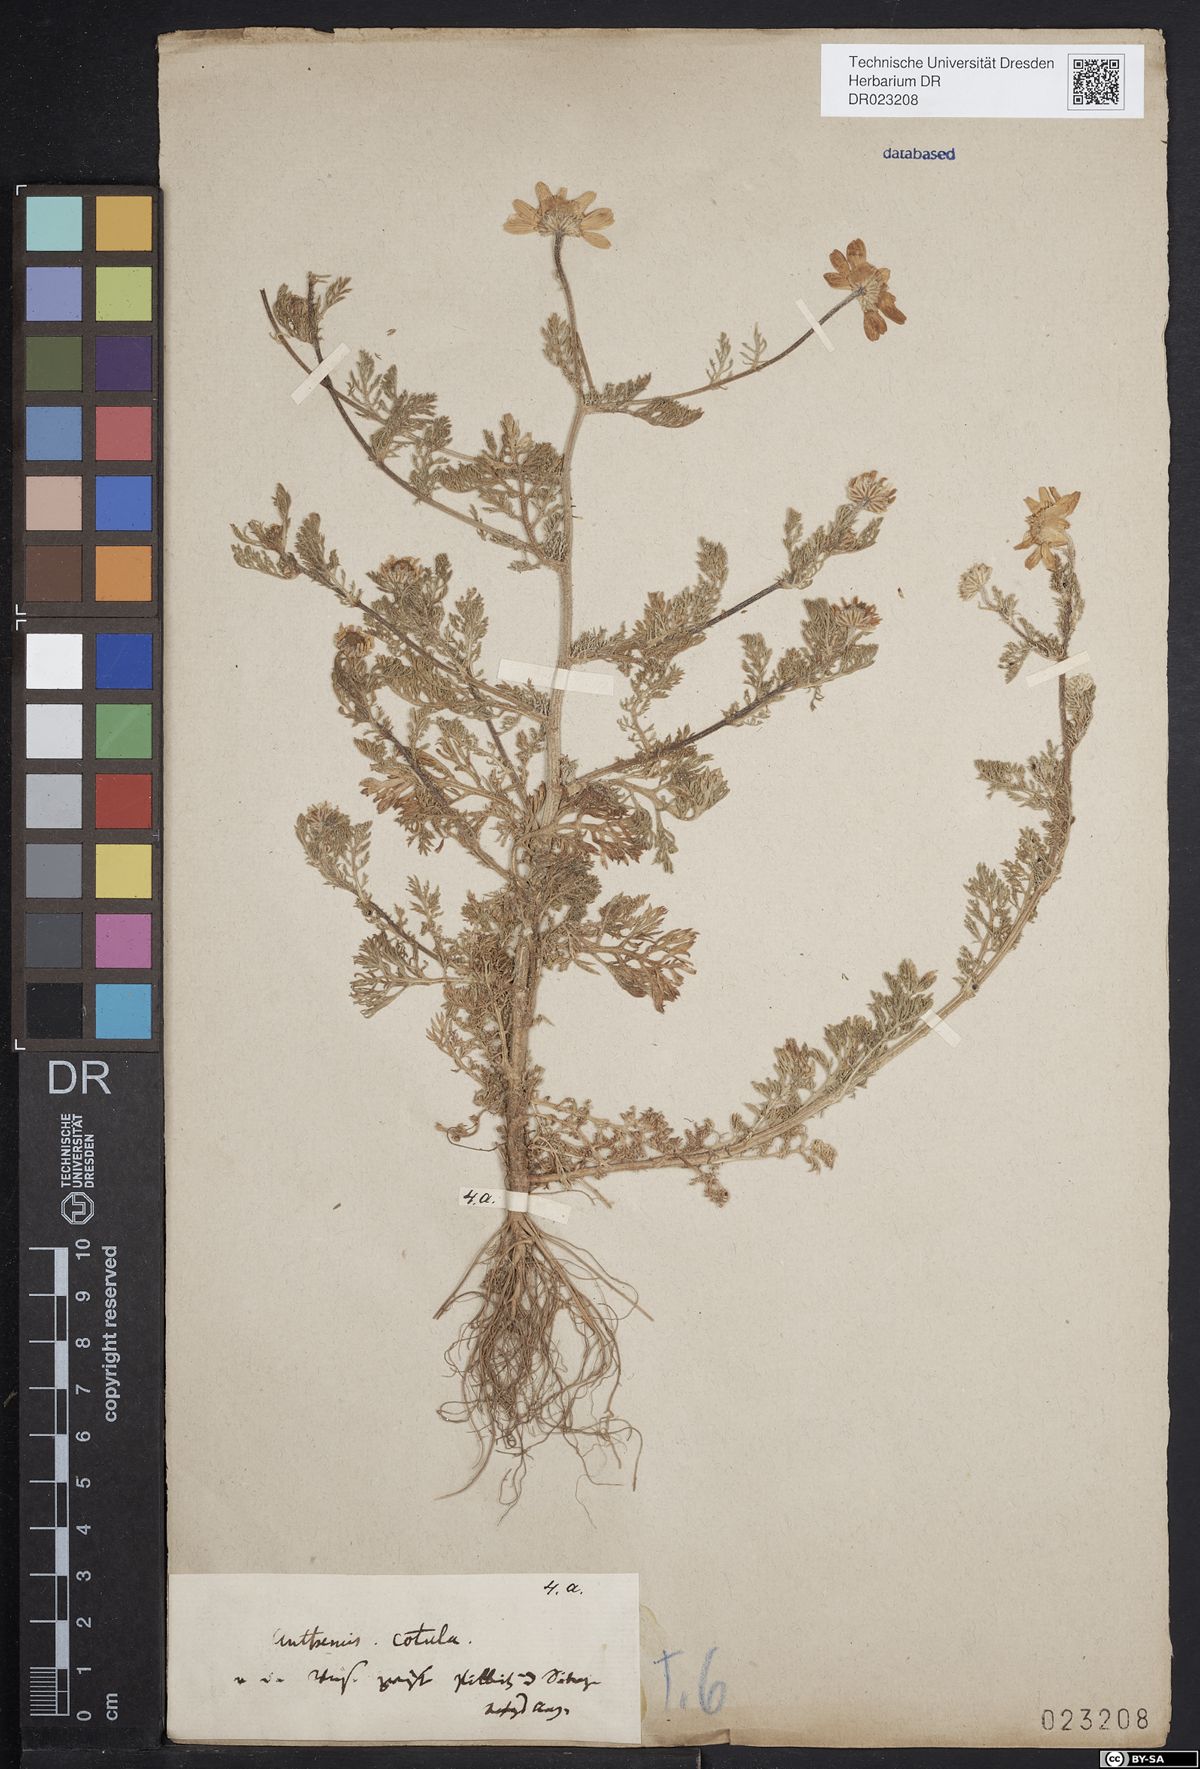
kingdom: Plantae
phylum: Tracheophyta
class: Magnoliopsida
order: Asterales
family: Asteraceae
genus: Anthemis
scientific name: Anthemis cotula
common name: Stinking chamomile
